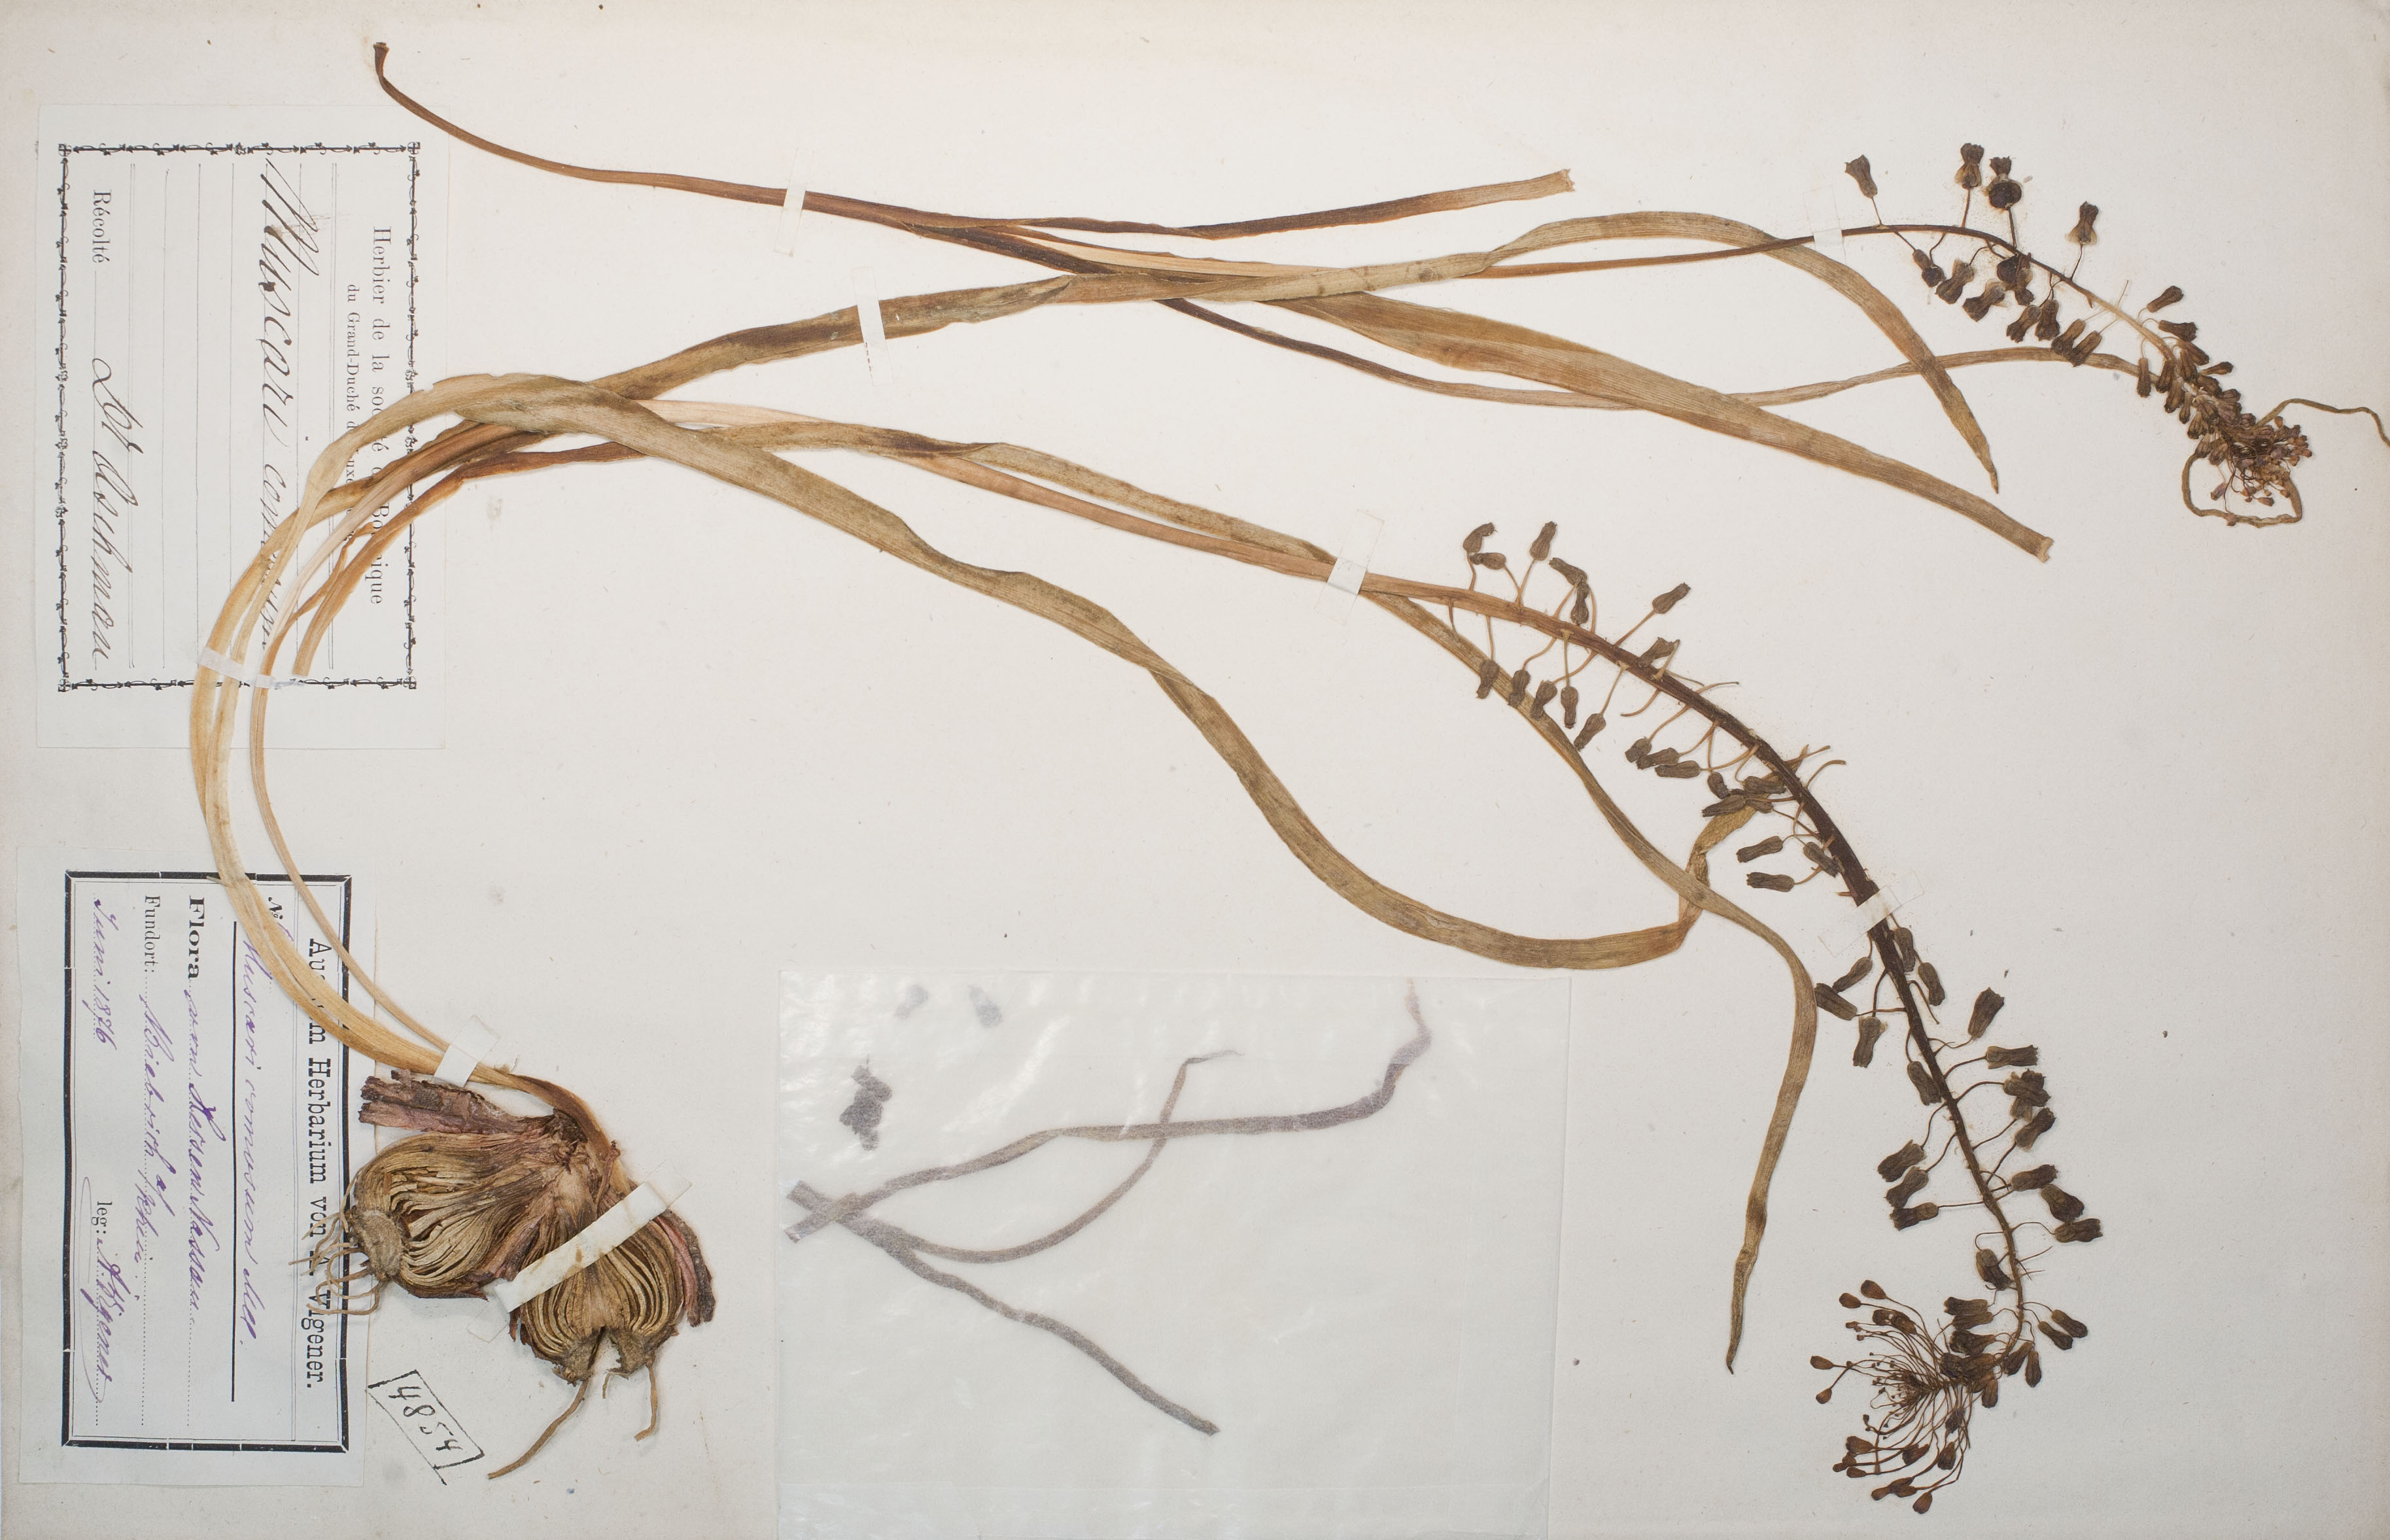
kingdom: Plantae
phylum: Tracheophyta
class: Liliopsida
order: Asparagales
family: Asparagaceae
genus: Muscari
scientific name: Muscari comosum
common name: Tassel hyacinth
